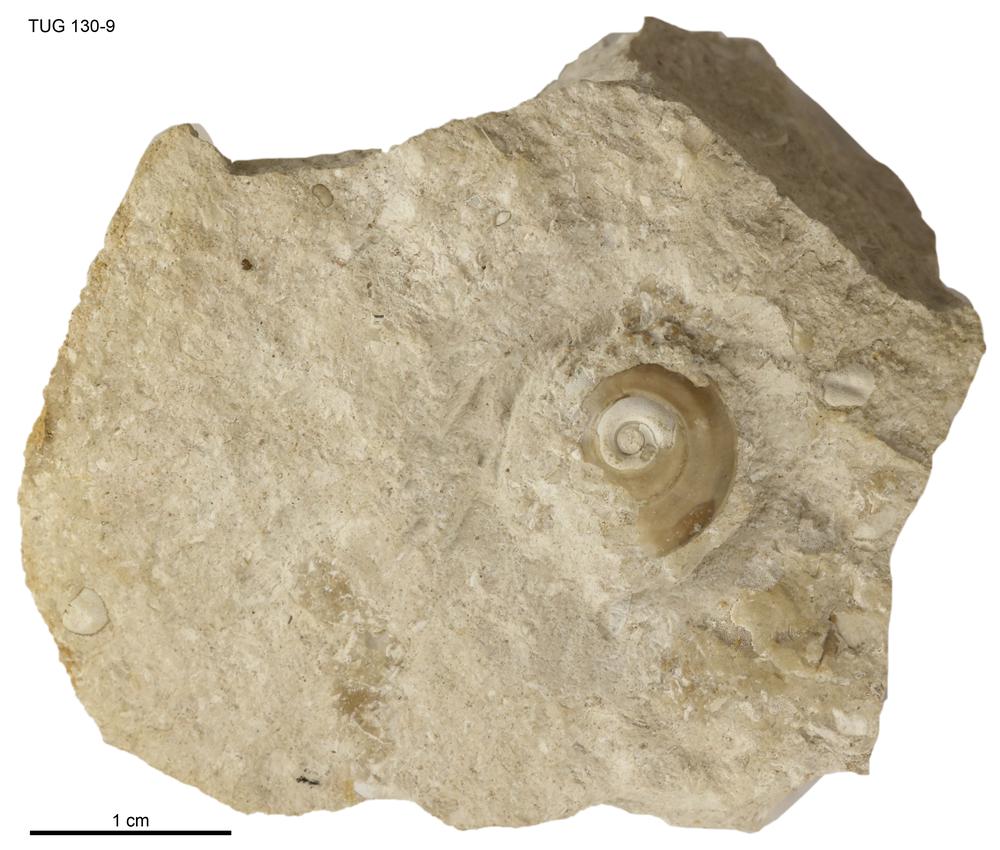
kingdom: Animalia
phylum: Mollusca
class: Gastropoda
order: Pleurotomariida
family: Planitrochidae
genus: Trochomphalus
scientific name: Trochomphalus Euomphalus dimidiatus
